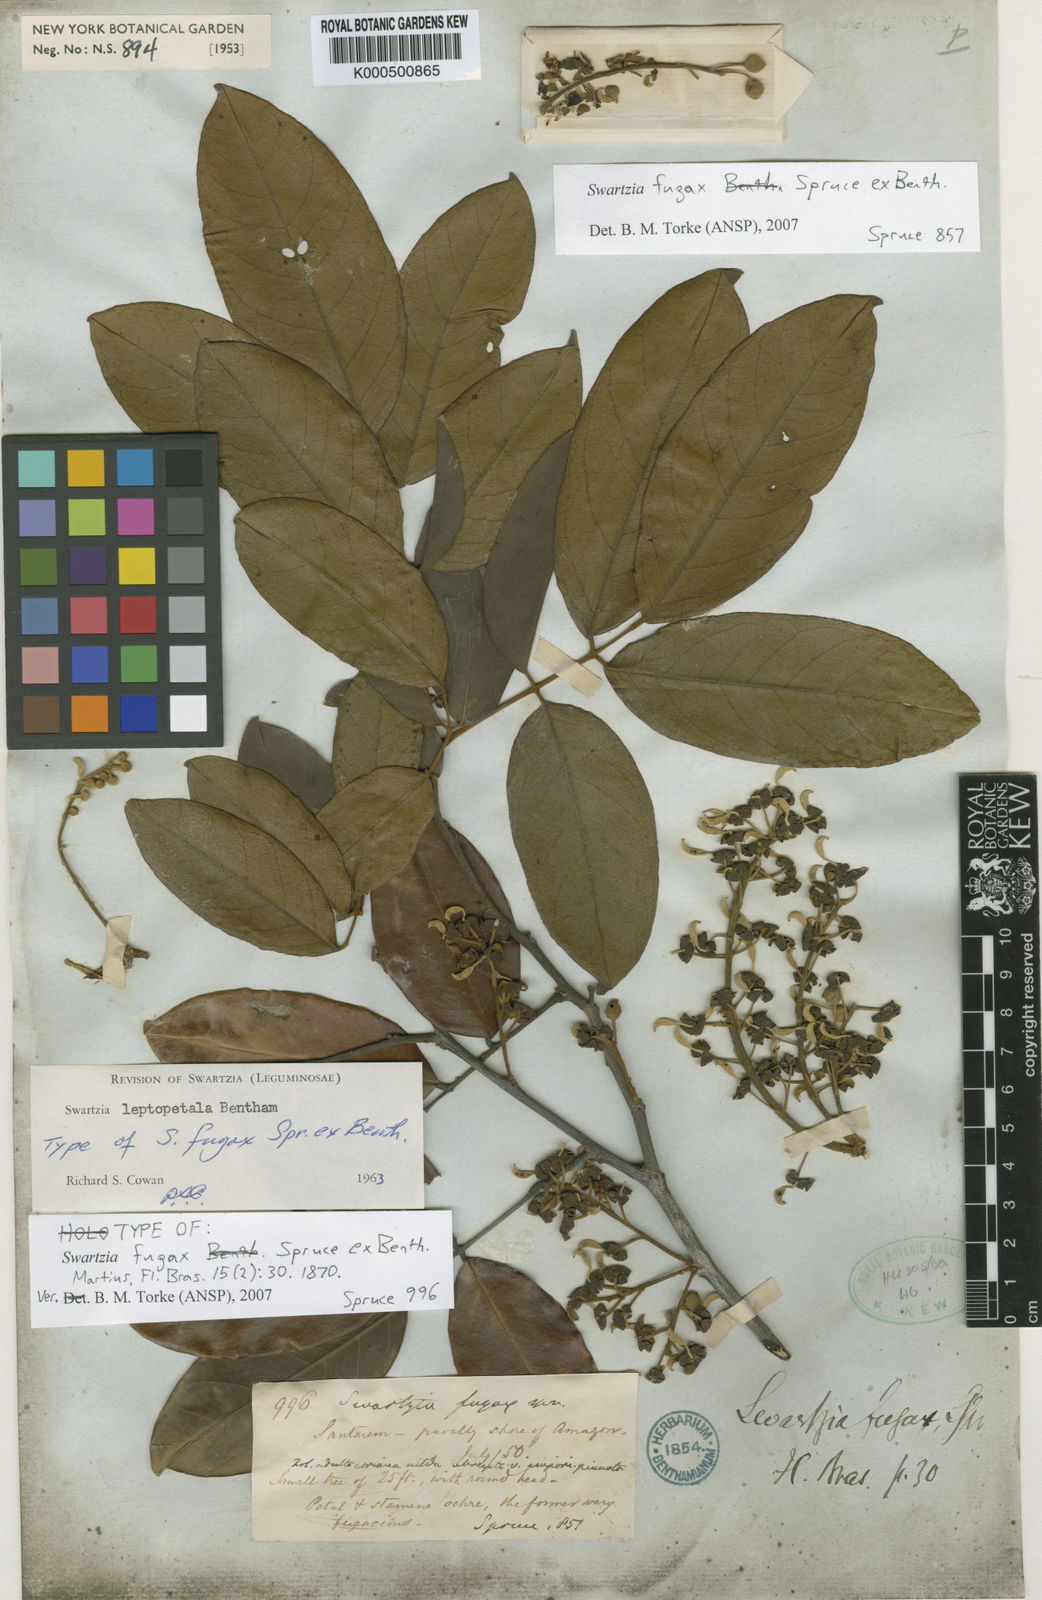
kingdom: Plantae
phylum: Tracheophyta
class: Magnoliopsida
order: Fabales
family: Fabaceae
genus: Swartzia
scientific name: Swartzia leptopetala
